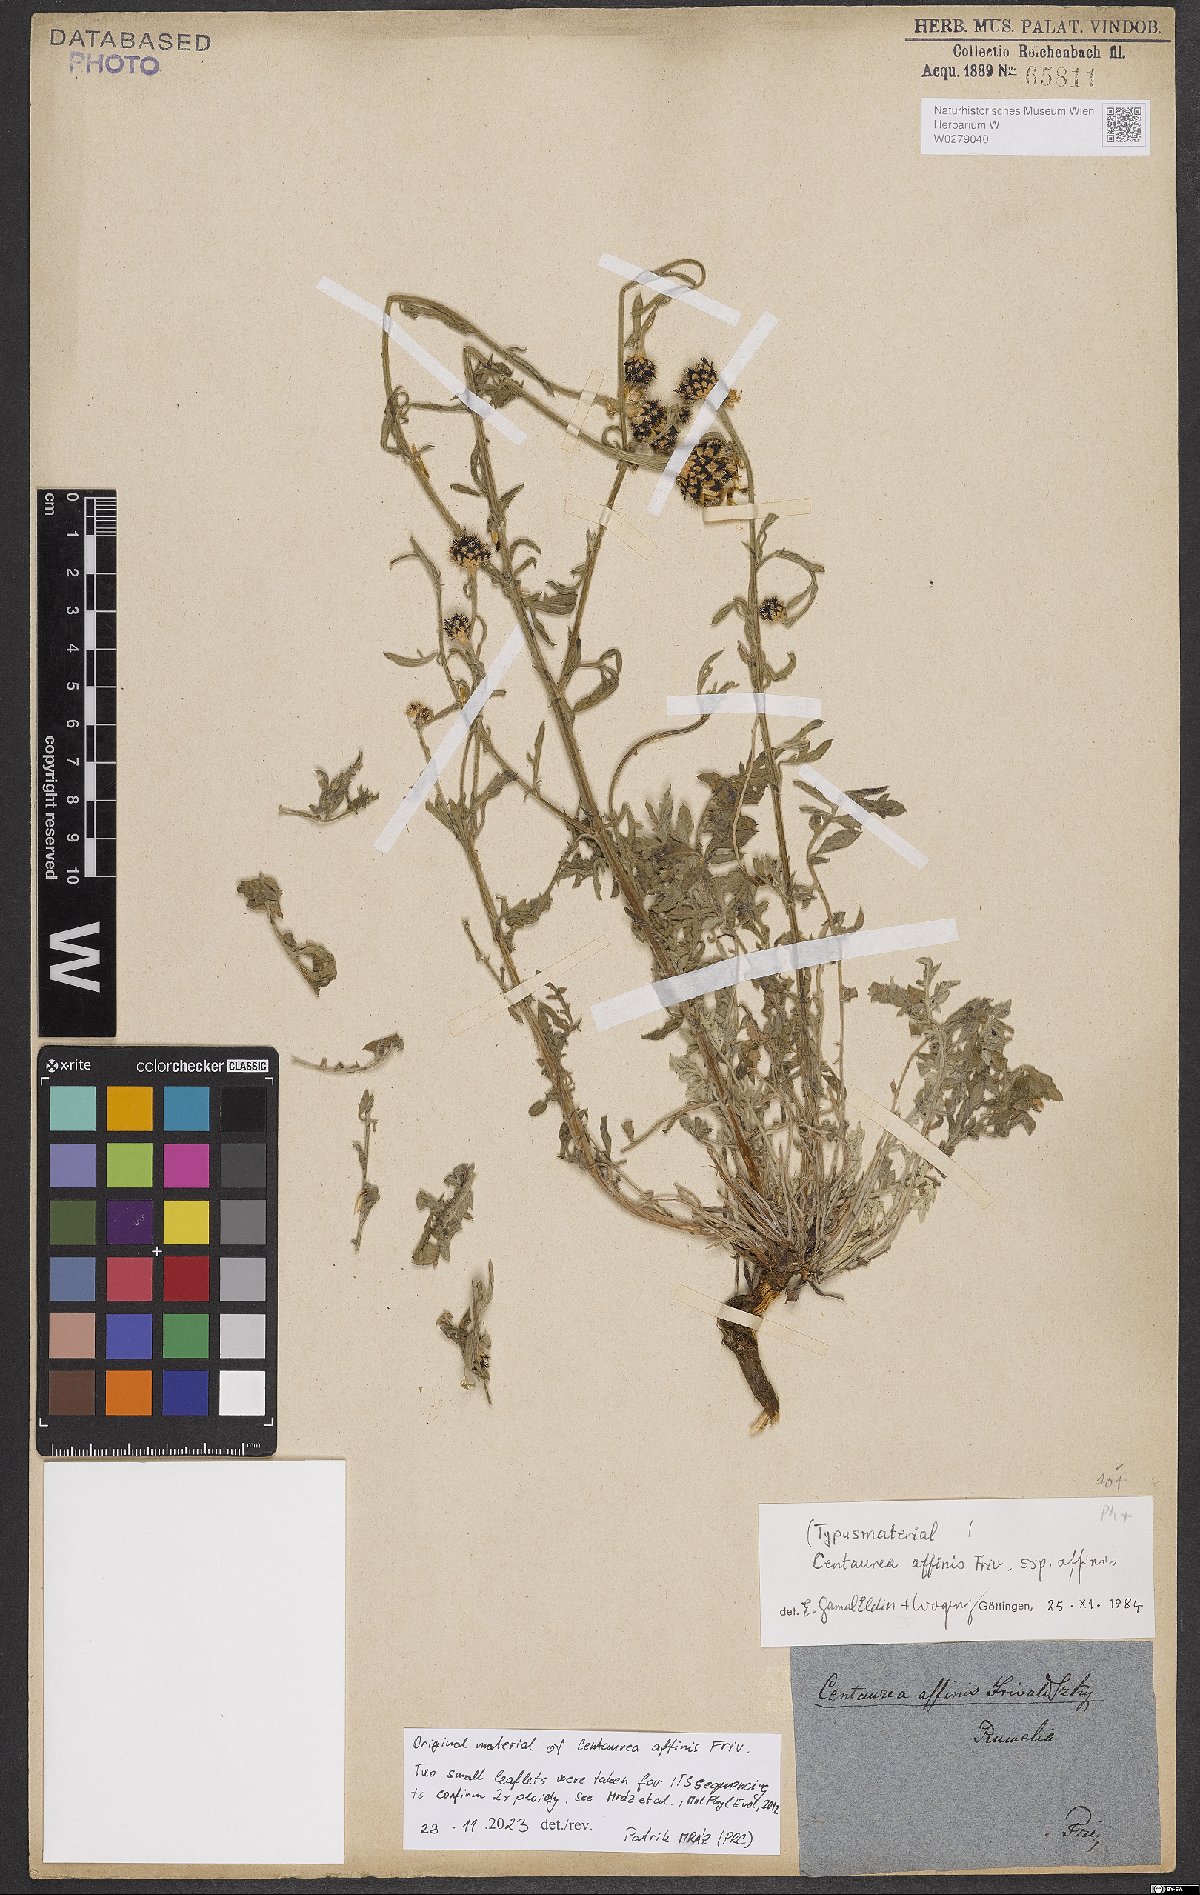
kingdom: Plantae
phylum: Tracheophyta
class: Magnoliopsida
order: Asterales
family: Asteraceae
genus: Centaurea
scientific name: Centaurea affinis
